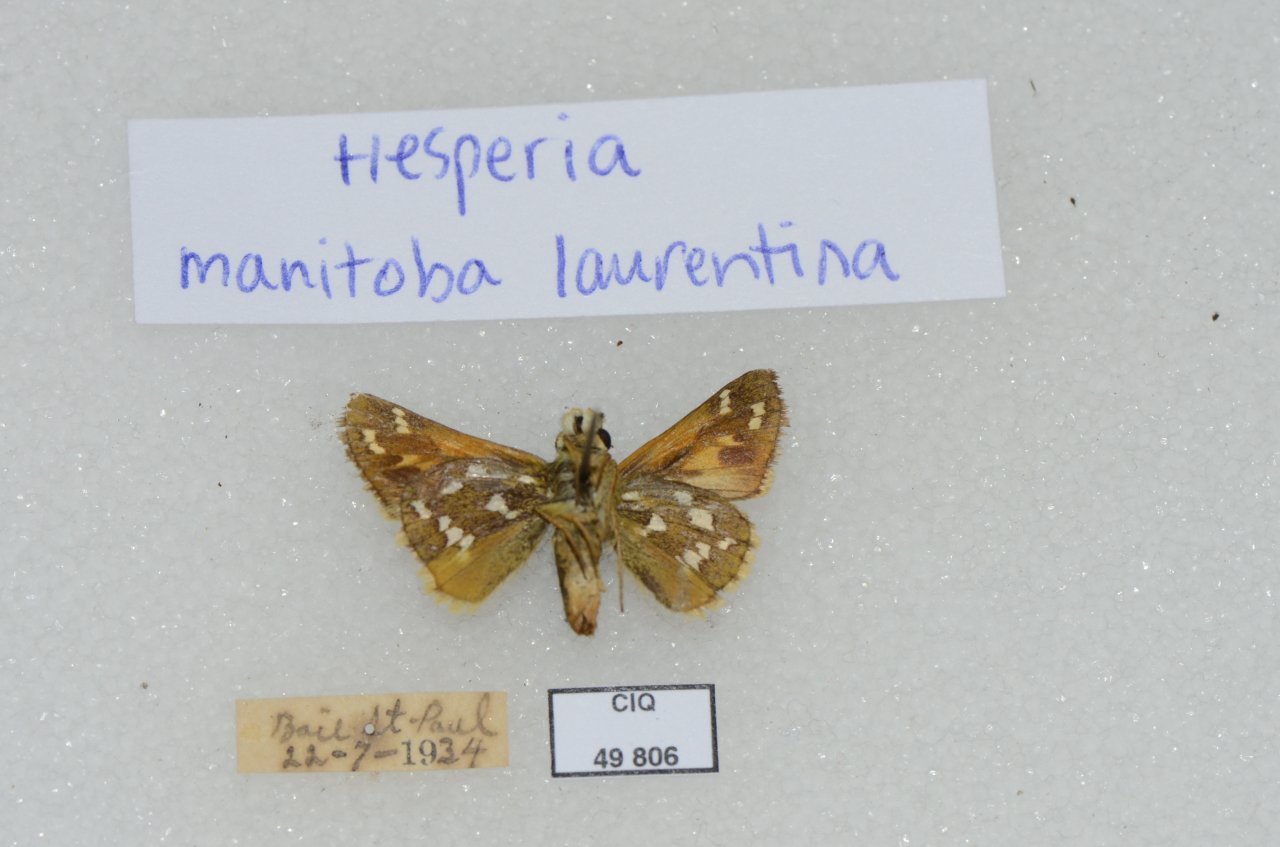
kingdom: Animalia
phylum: Arthropoda
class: Insecta
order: Lepidoptera
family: Hesperiidae
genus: Hesperia
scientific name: Hesperia comma
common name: Common Branded Skipper
